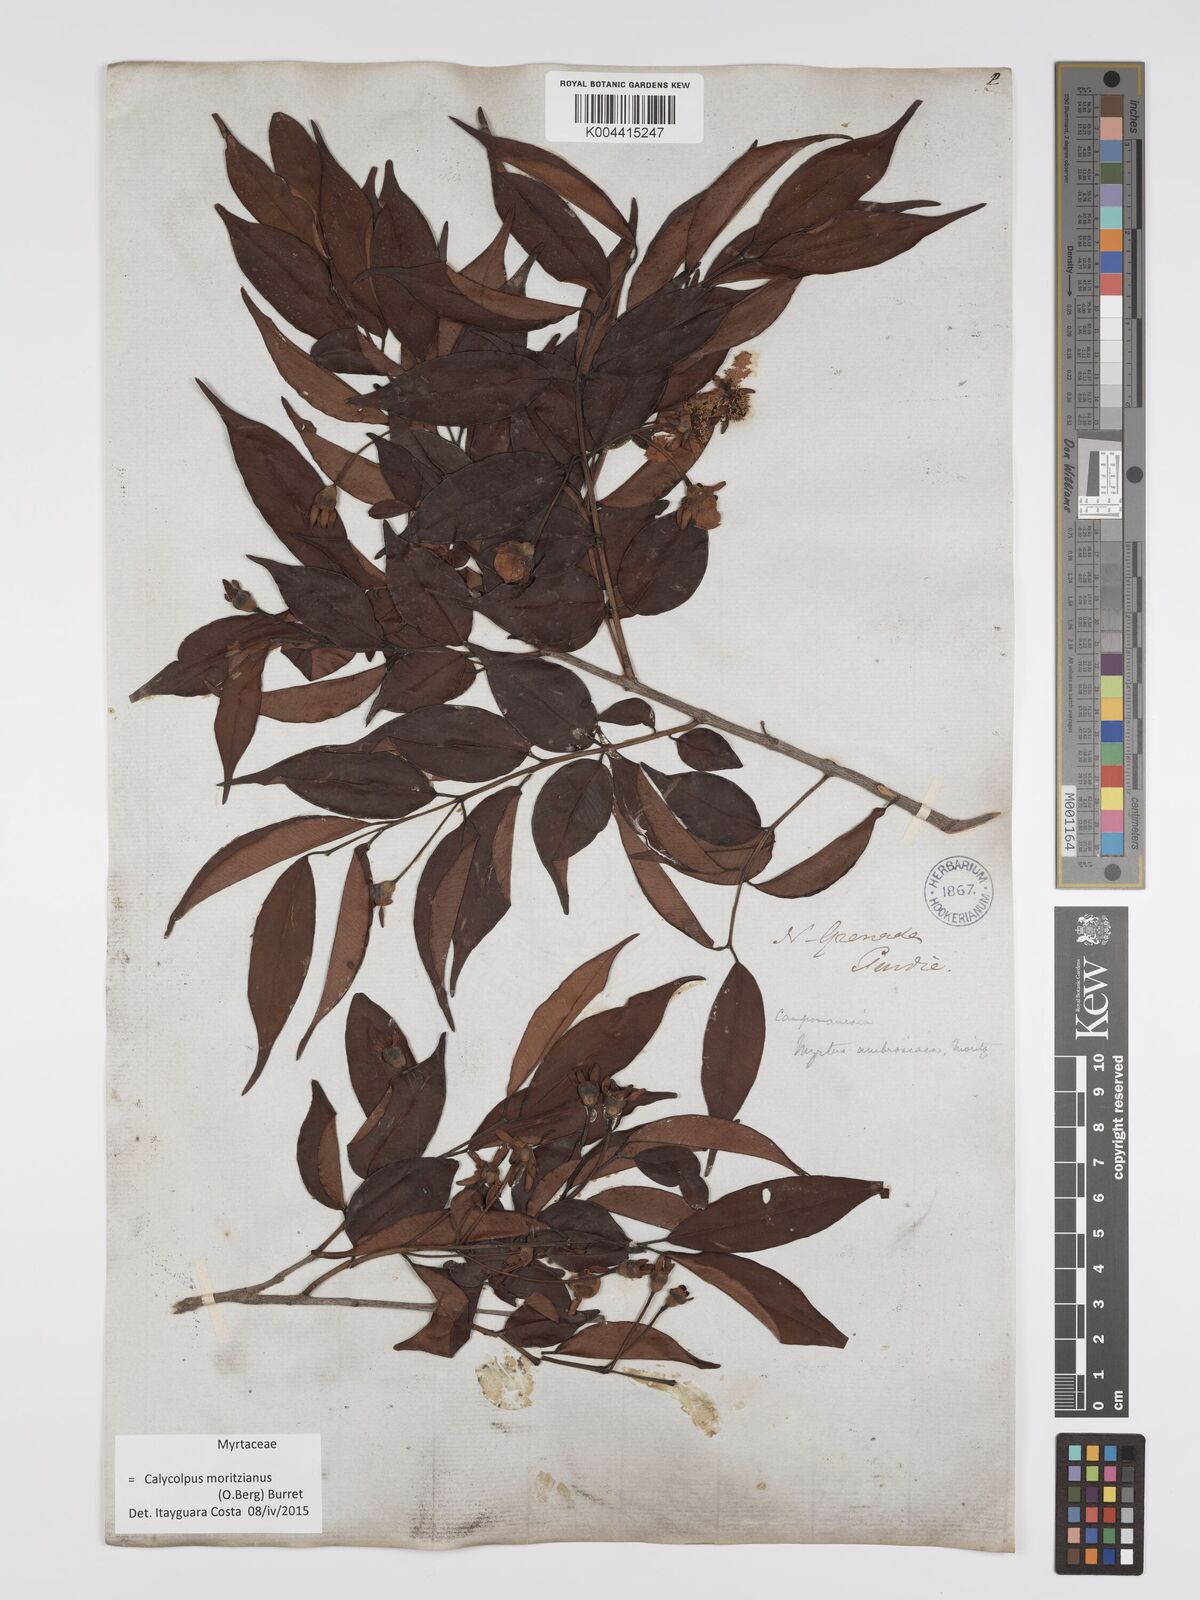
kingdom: Plantae
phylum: Tracheophyta
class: Magnoliopsida
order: Myrtales
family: Myrtaceae
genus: Calycolpus
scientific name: Calycolpus moritzianus
